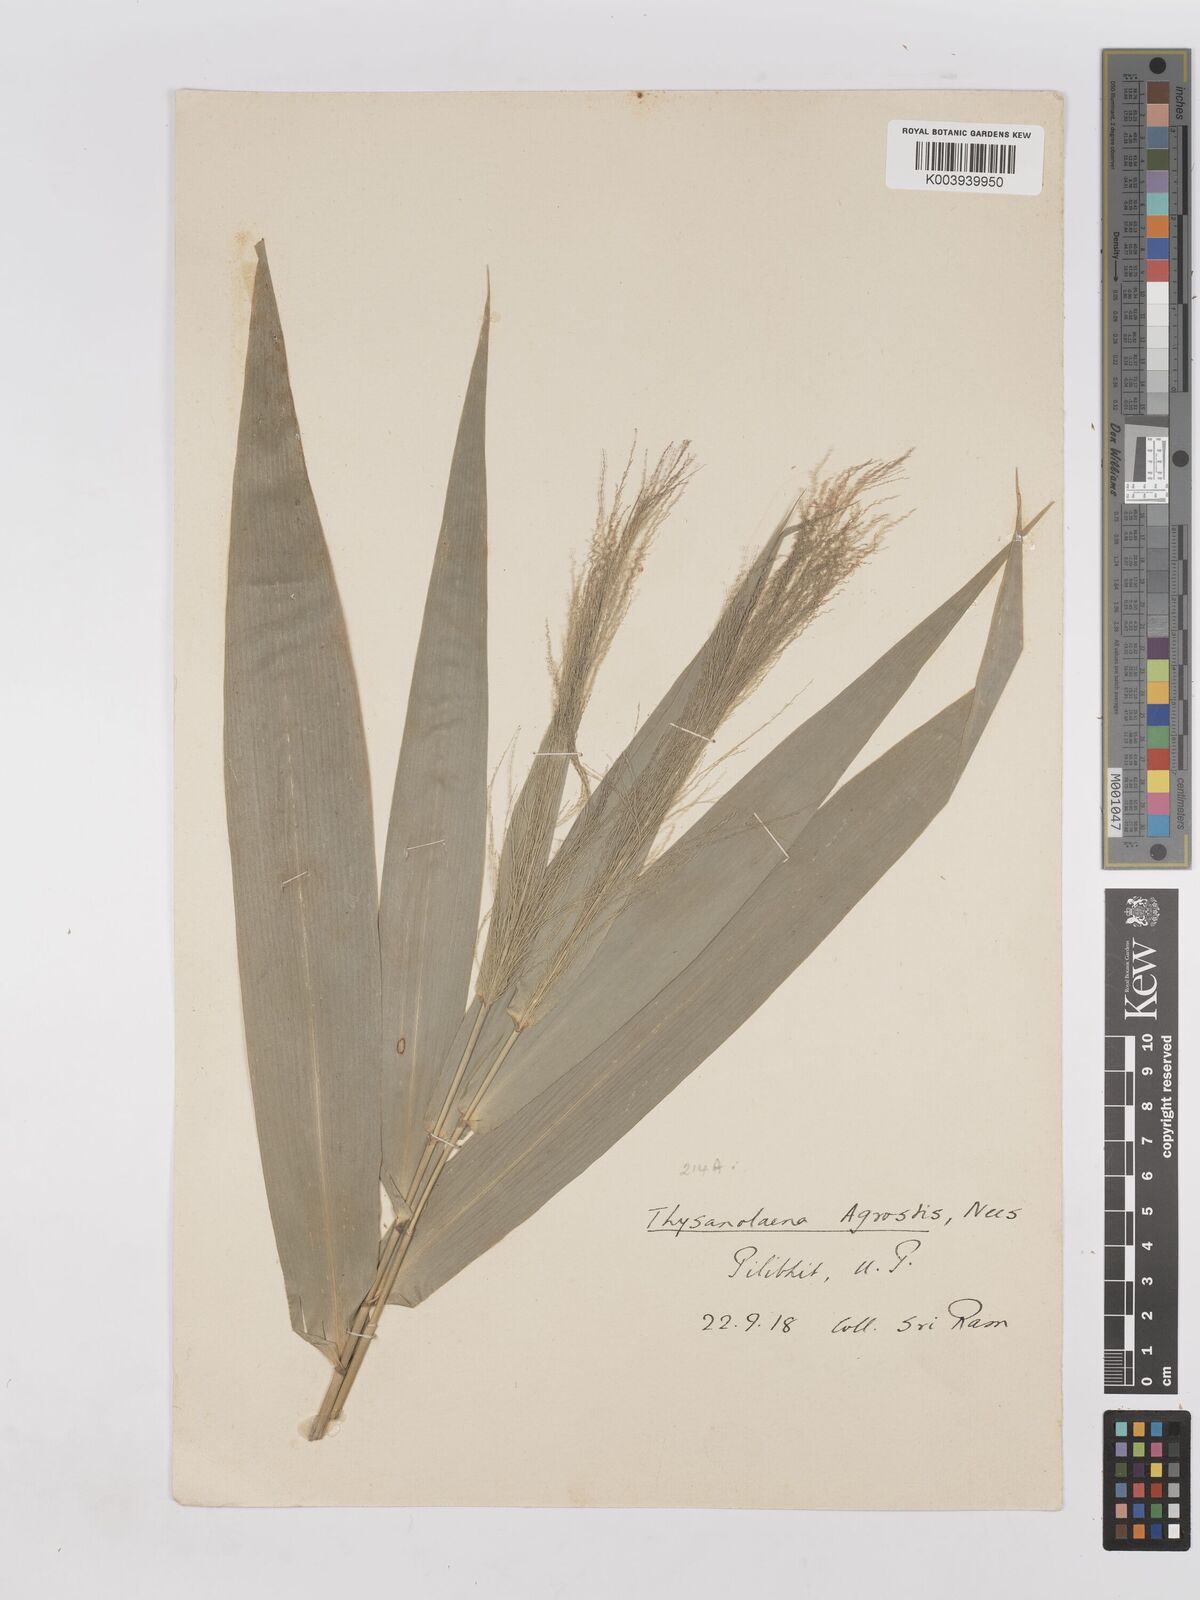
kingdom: Plantae
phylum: Tracheophyta
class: Liliopsida
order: Poales
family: Poaceae
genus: Thysanolaena
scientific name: Thysanolaena latifolia
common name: Tiger grass
